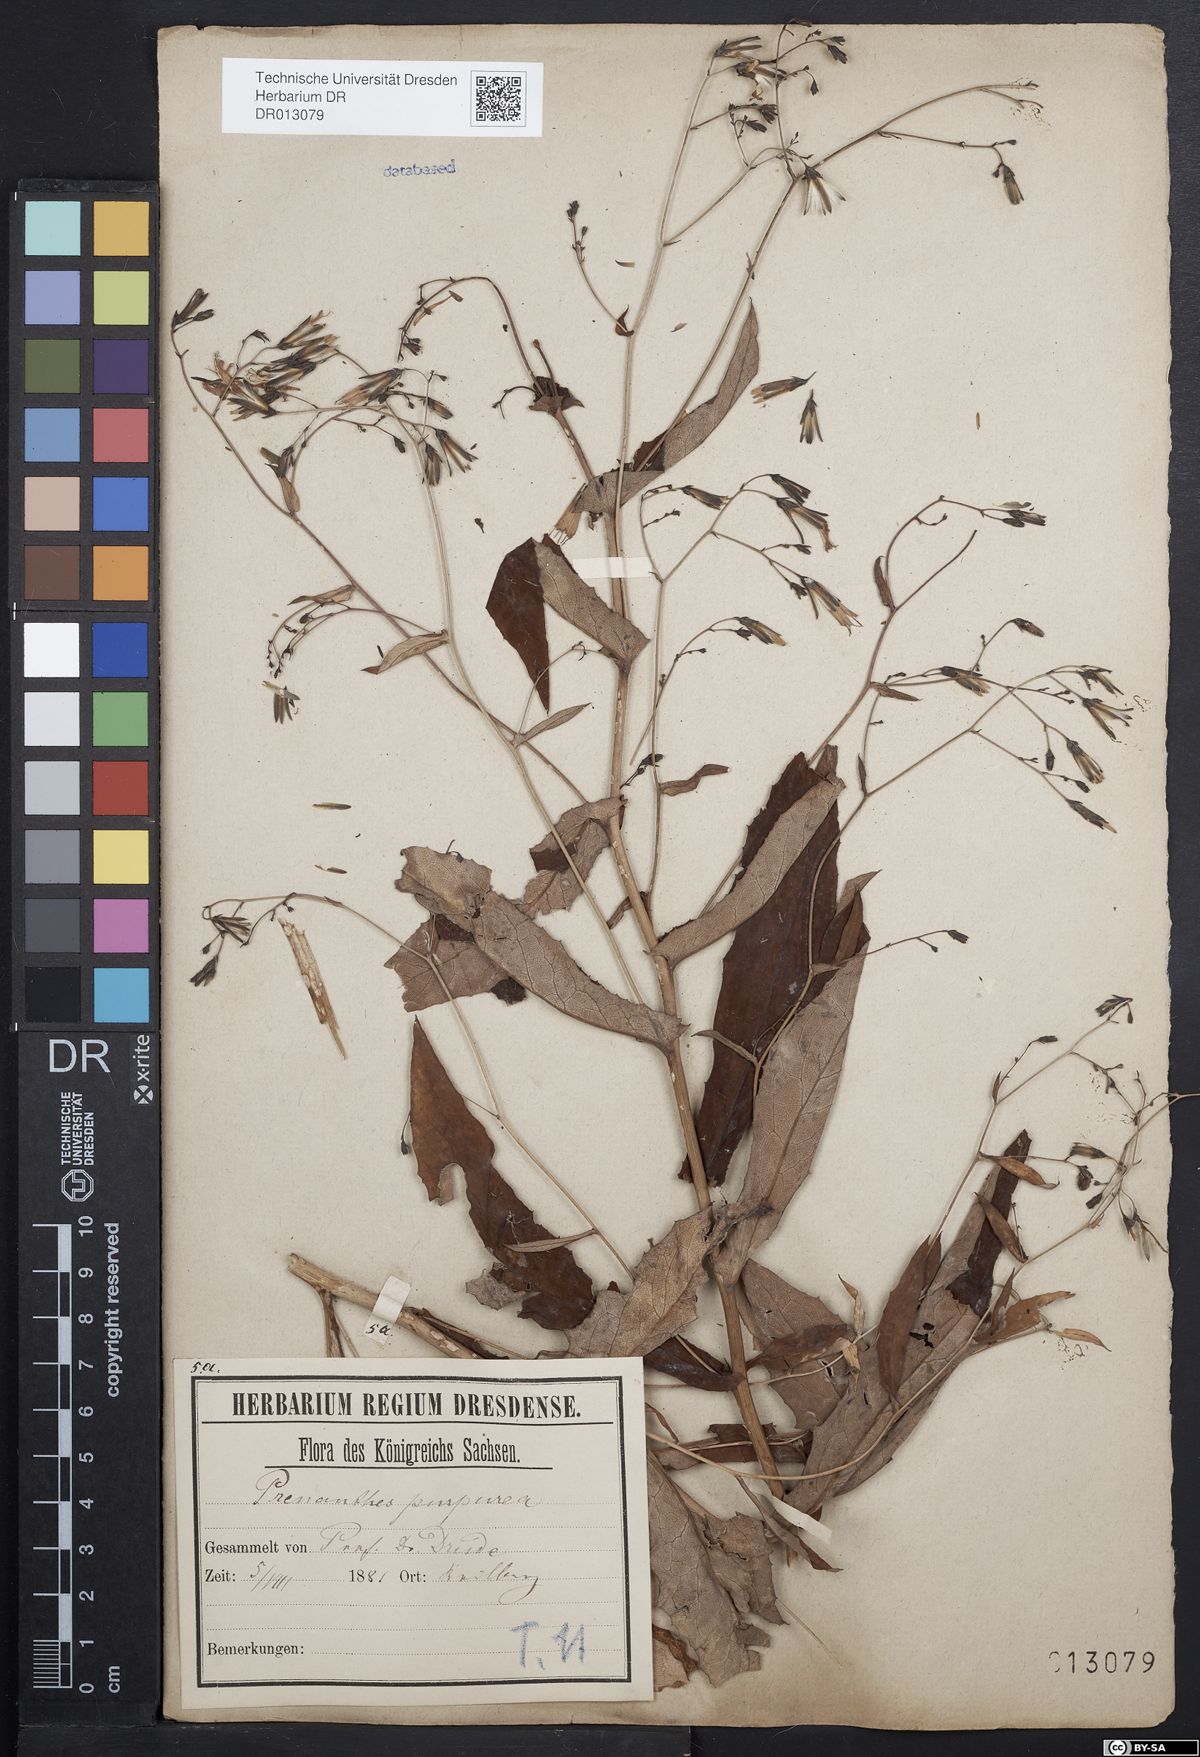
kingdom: Plantae
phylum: Tracheophyta
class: Magnoliopsida
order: Asterales
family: Asteraceae
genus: Prenanthes
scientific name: Prenanthes purpurea
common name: Purple lettuce
